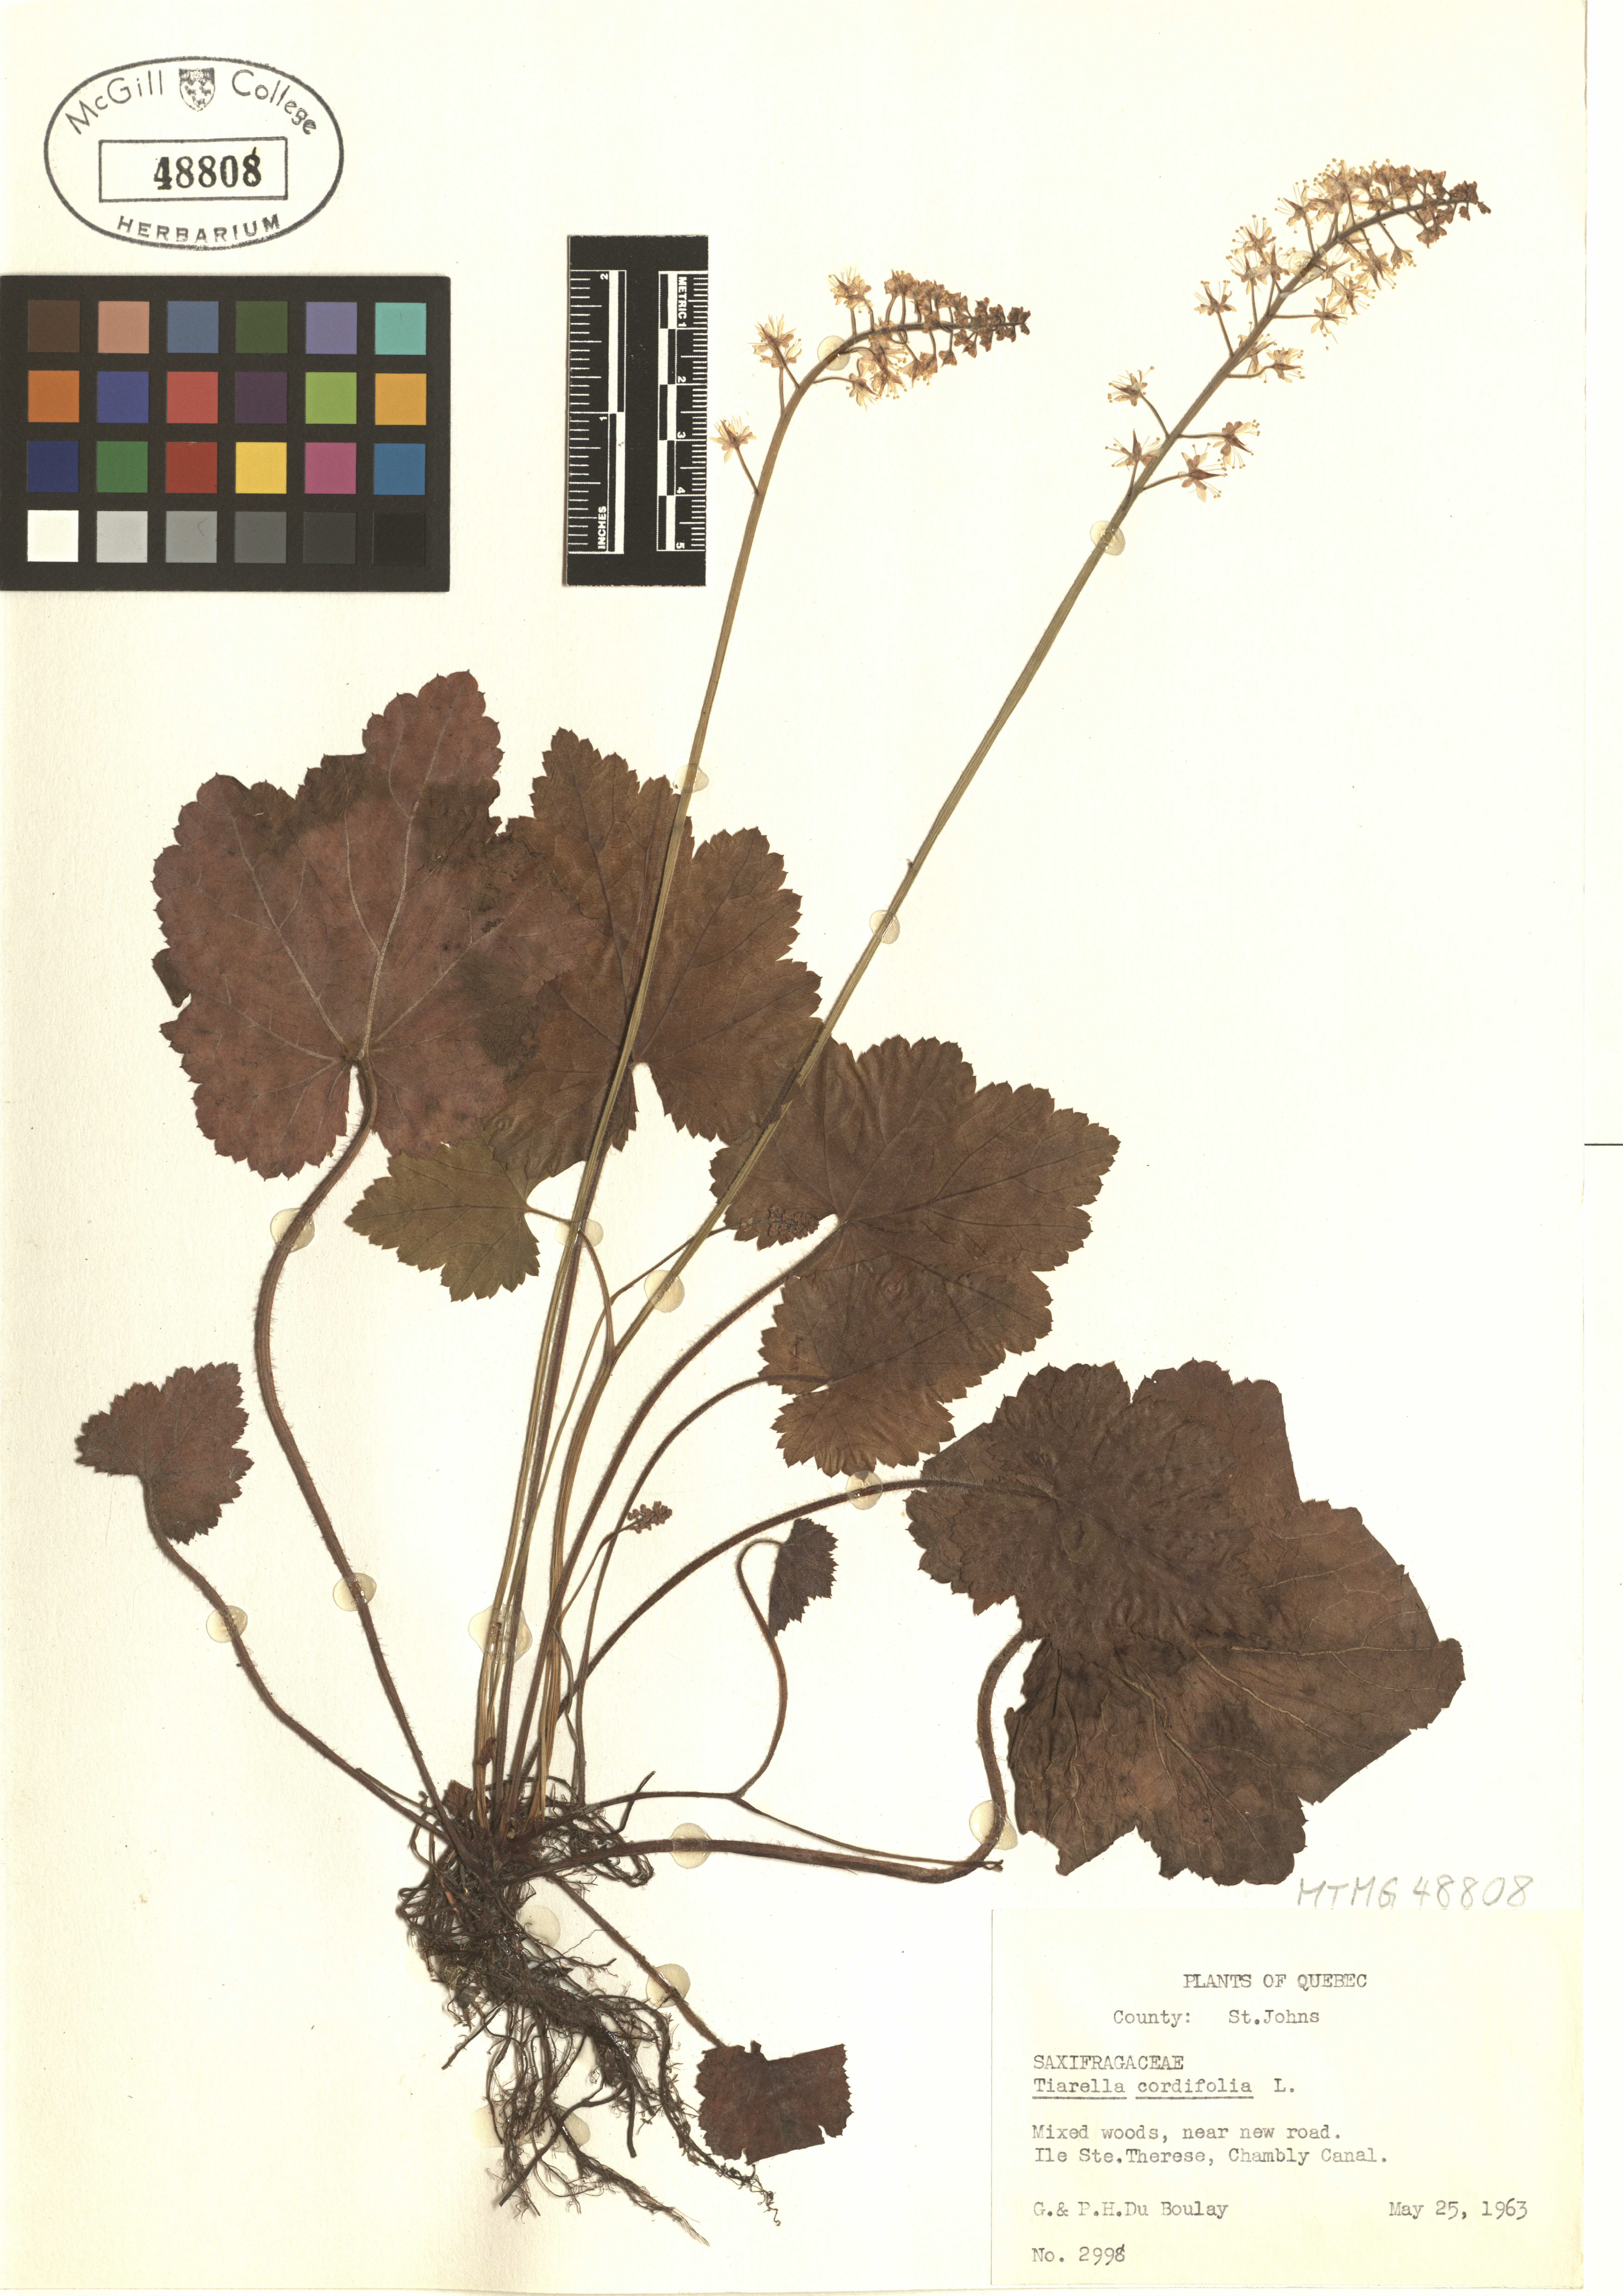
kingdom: Plantae
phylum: Tracheophyta
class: Magnoliopsida
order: Saxifragales
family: Saxifragaceae
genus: Tiarella
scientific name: Tiarella cordifolia
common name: Foamflower
